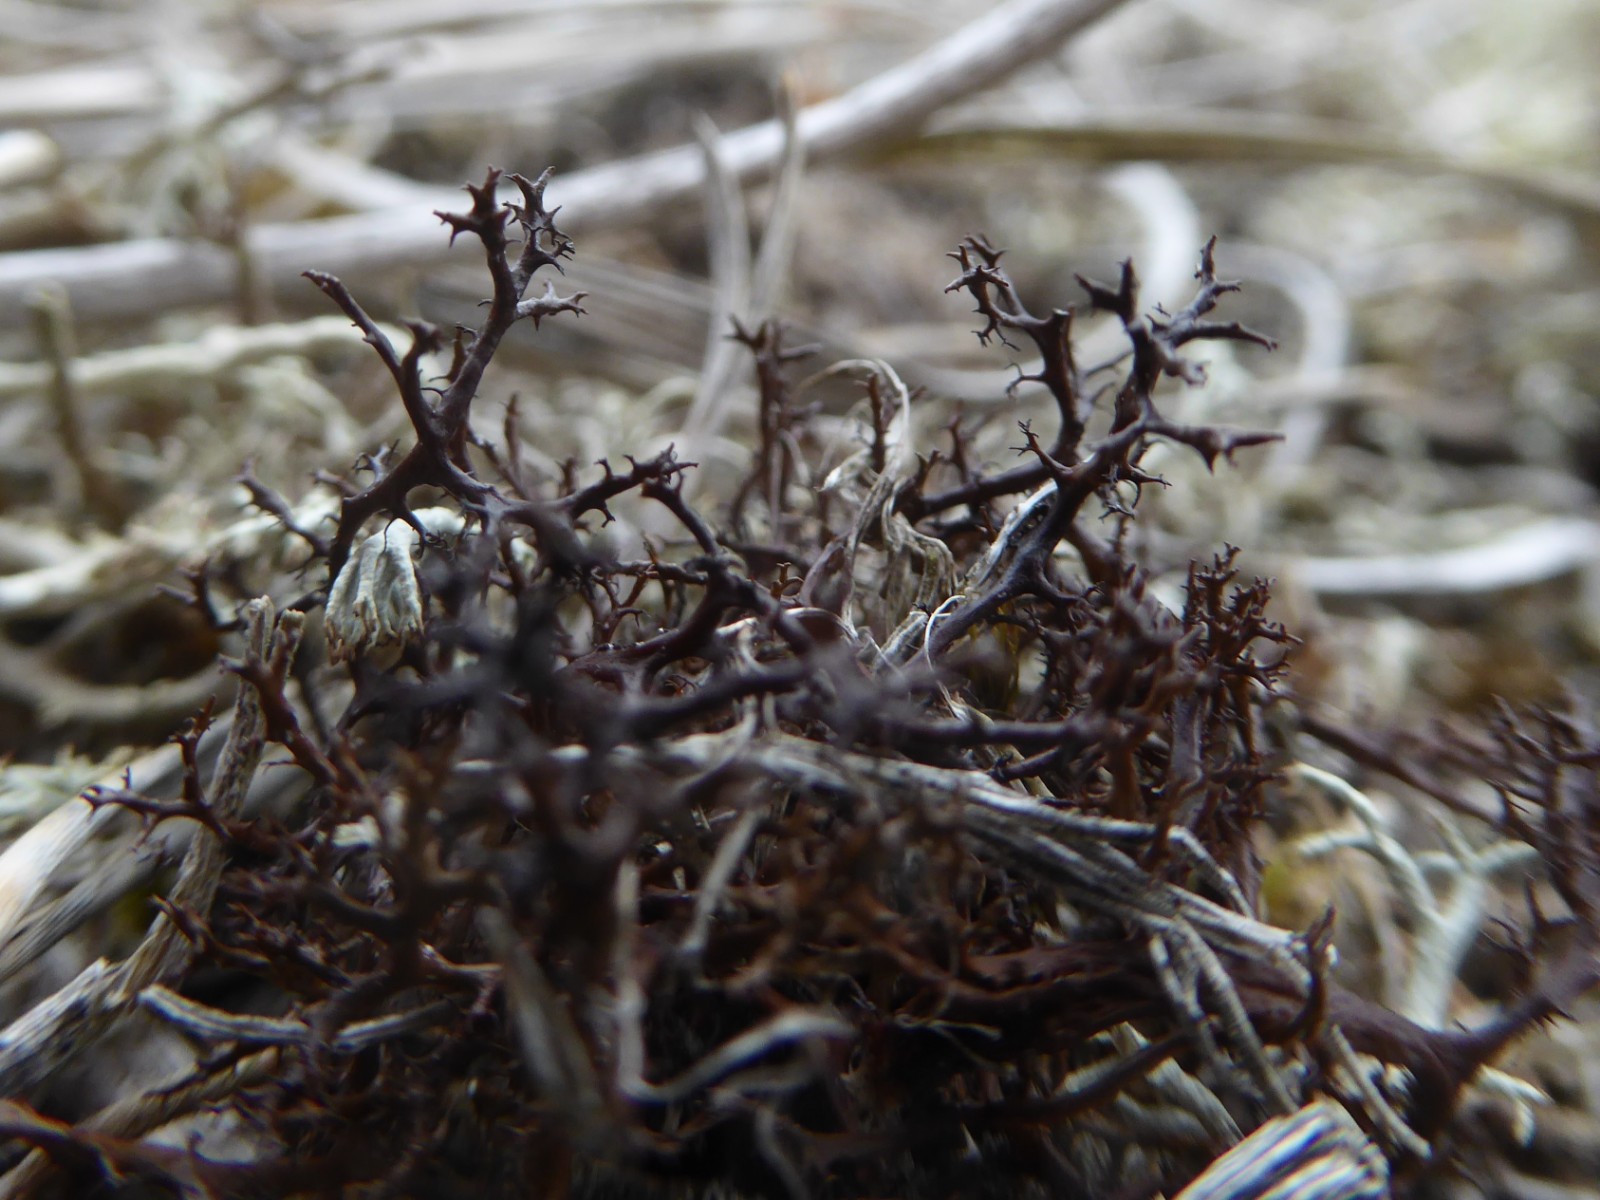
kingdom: Fungi
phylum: Ascomycota
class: Lecanoromycetes
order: Lecanorales
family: Parmeliaceae
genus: Cetraria
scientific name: Cetraria muricata
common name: tue-tjørnelav
